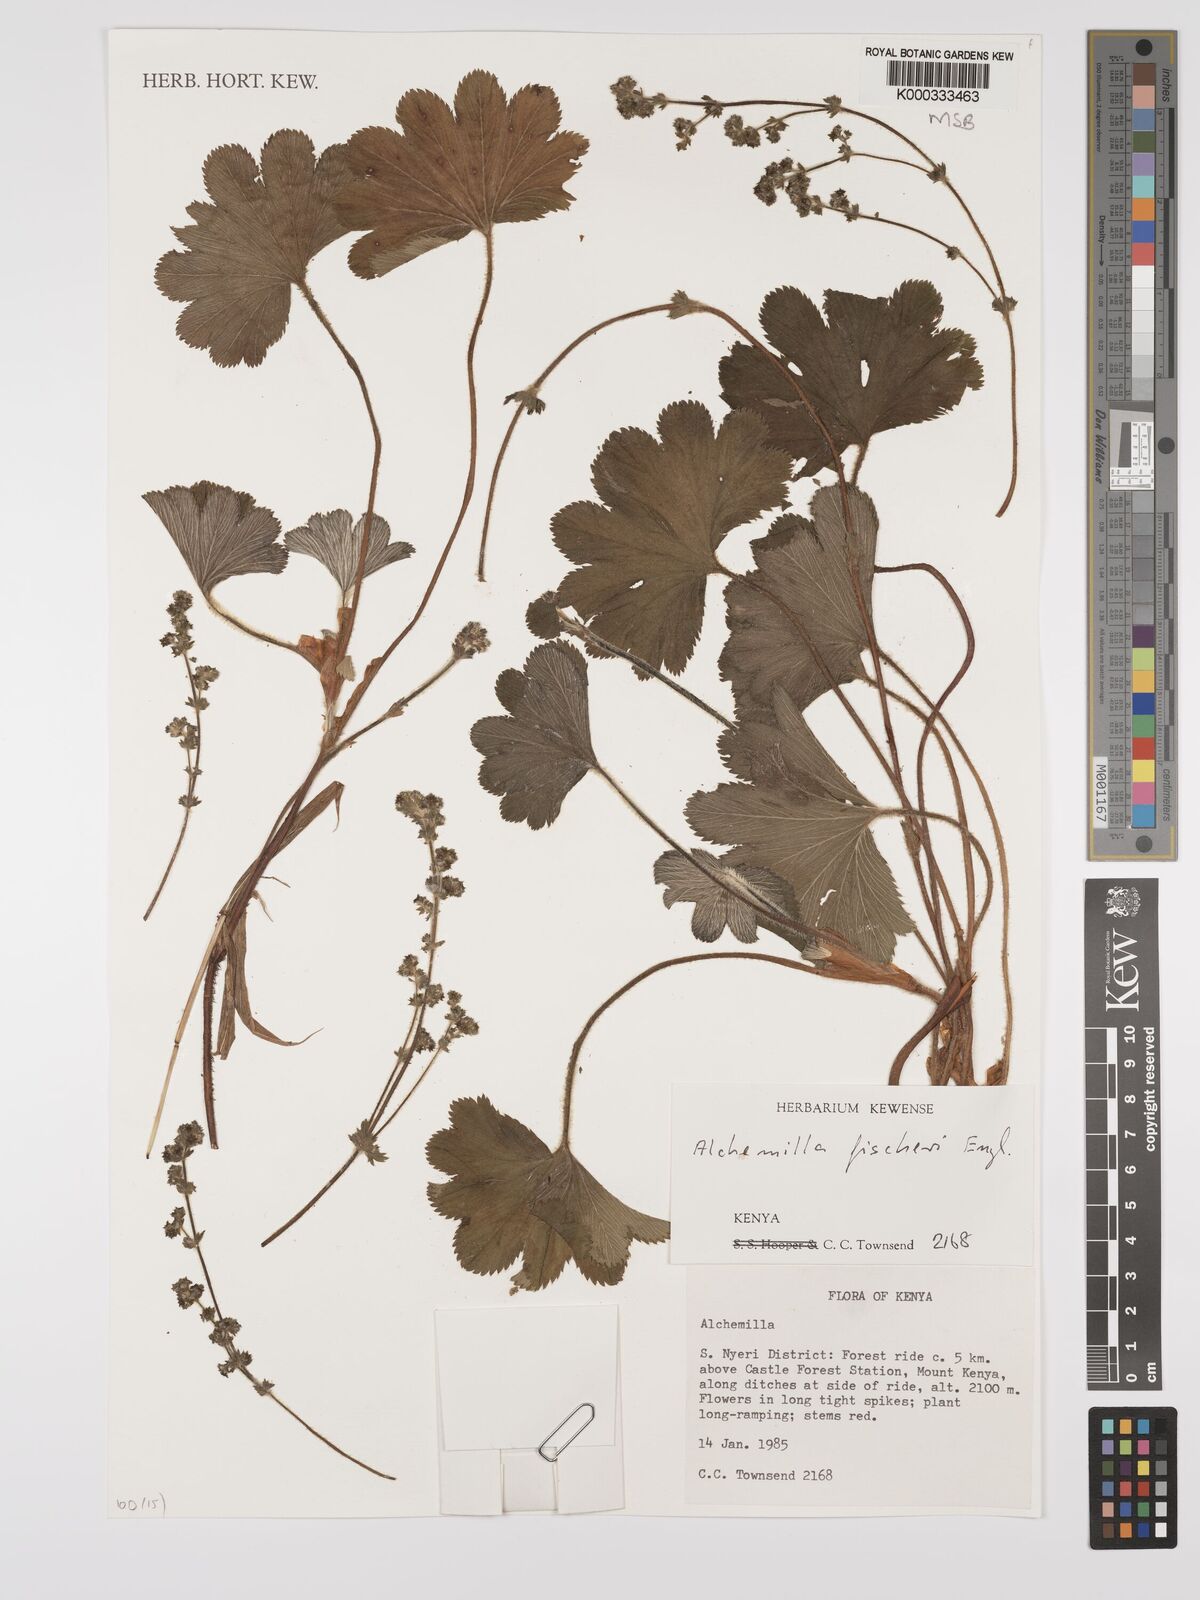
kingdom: Plantae
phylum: Tracheophyta
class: Magnoliopsida
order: Rosales
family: Rosaceae
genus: Alchemilla
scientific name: Alchemilla fischeri
